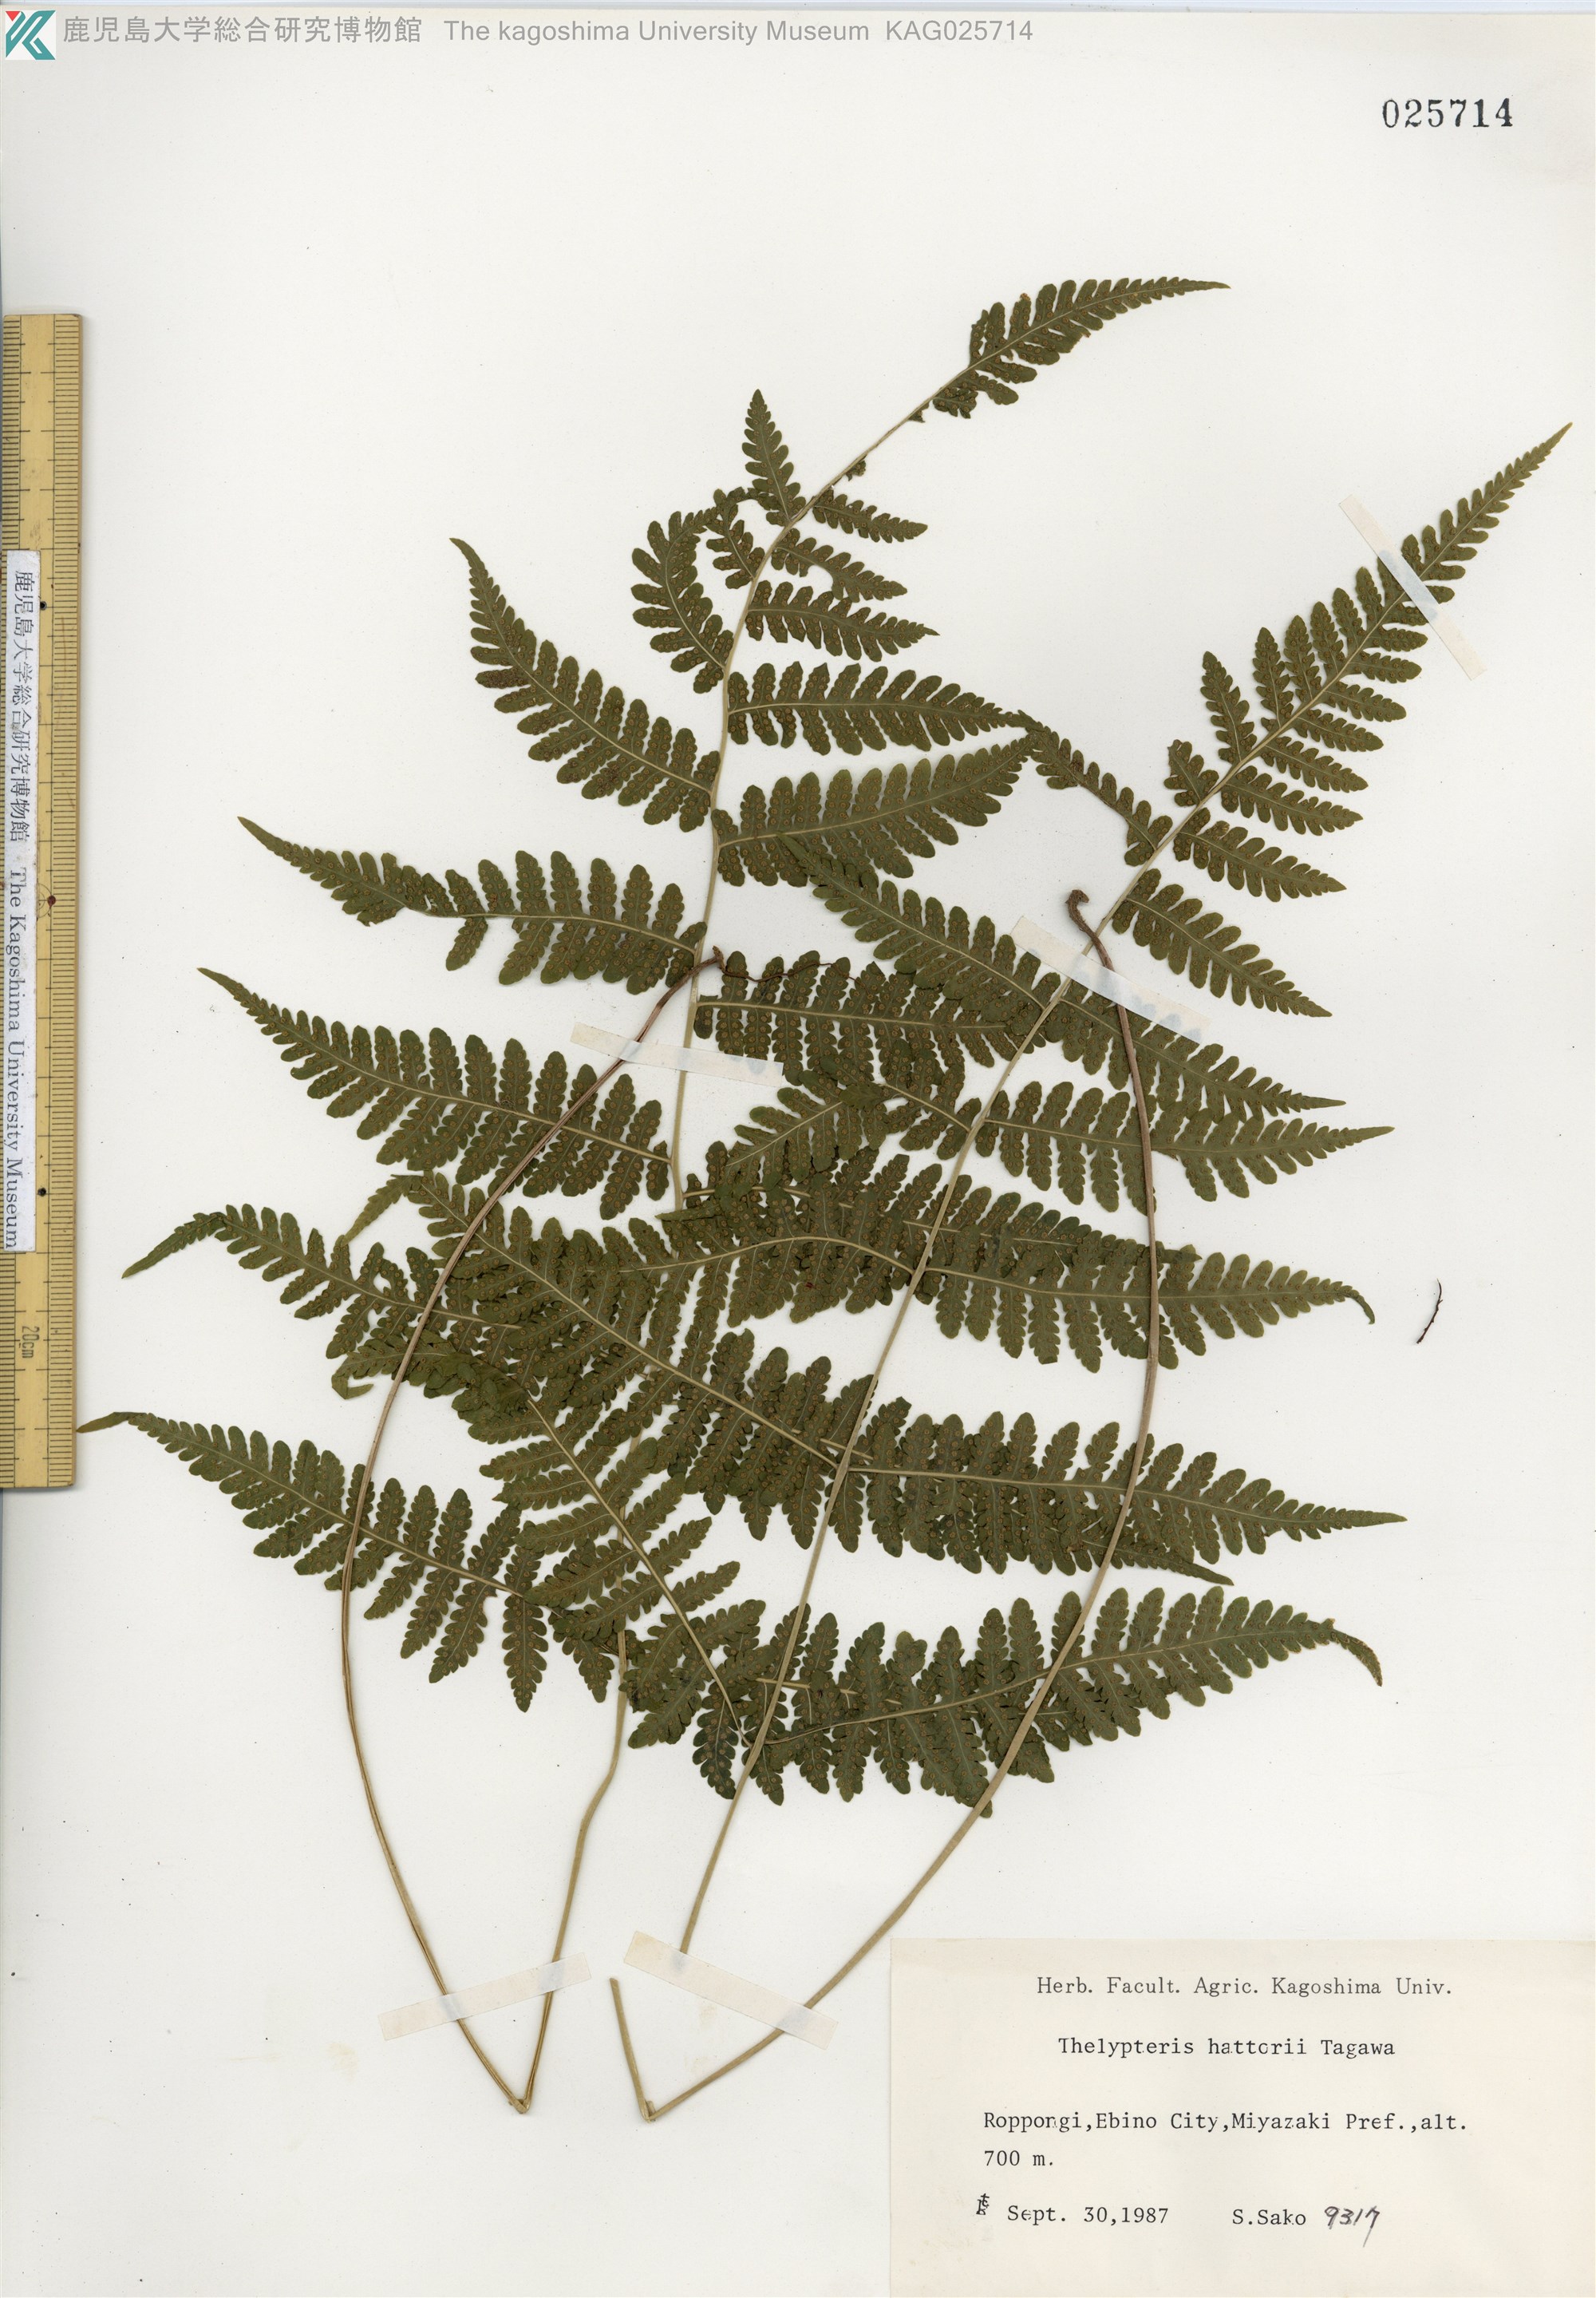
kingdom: Plantae
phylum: Tracheophyta
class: Polypodiopsida
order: Polypodiales
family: Thelypteridaceae
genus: Metathelypteris
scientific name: Metathelypteris hattori
